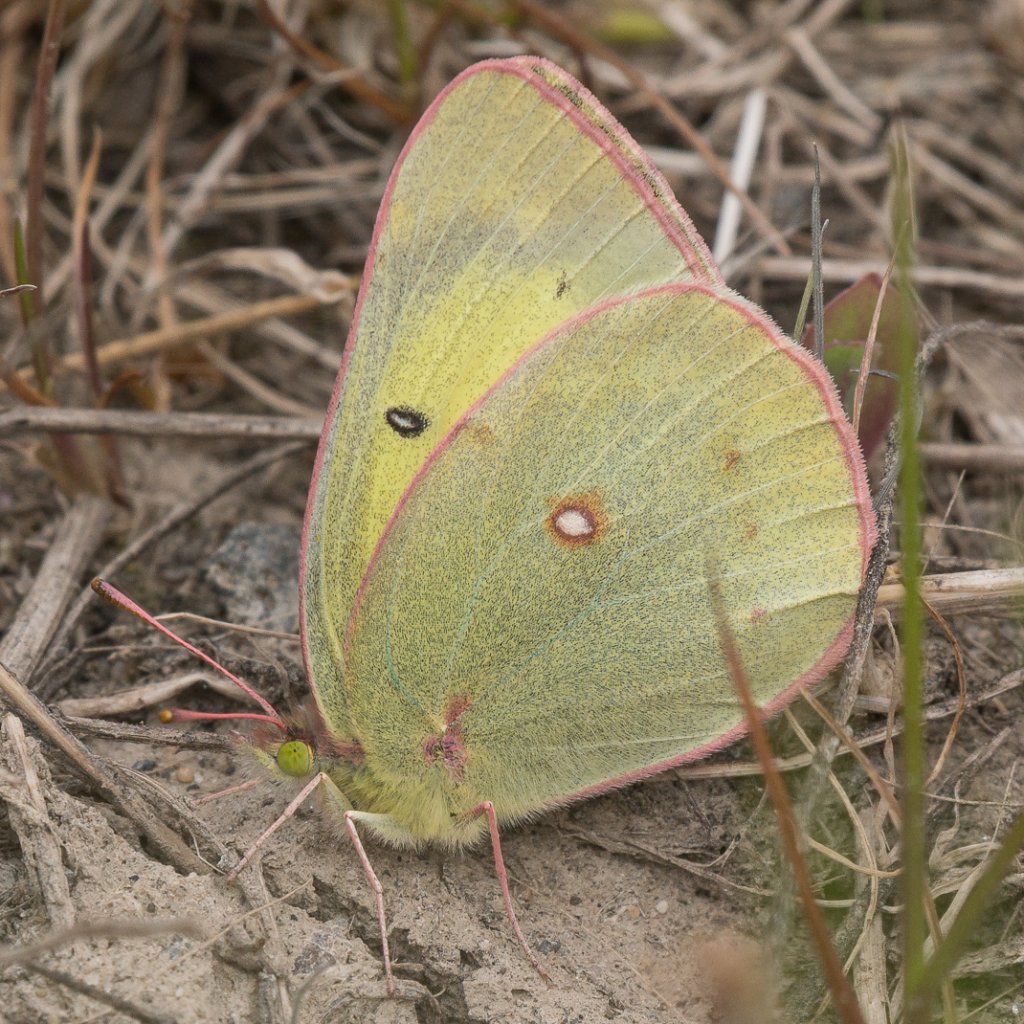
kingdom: Animalia
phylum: Arthropoda
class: Insecta
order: Lepidoptera
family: Pieridae
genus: Colias
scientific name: Colias philodice
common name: Clouded Sulphur
